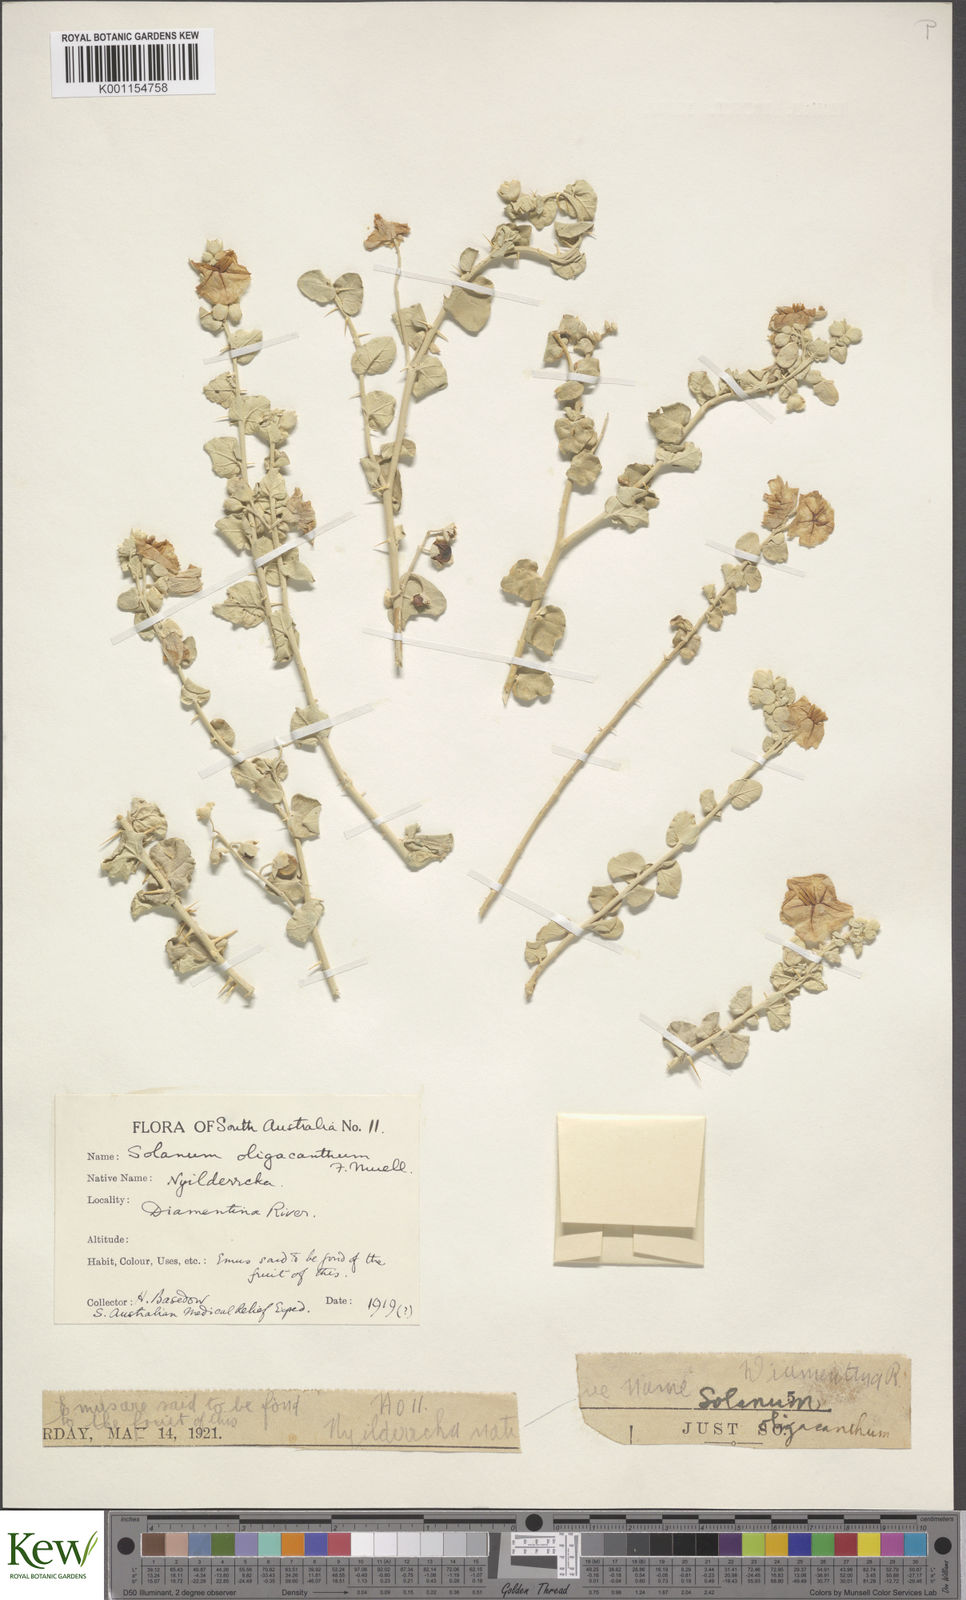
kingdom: Plantae
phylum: Tracheophyta
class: Magnoliopsida
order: Solanales
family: Solanaceae
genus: Solanum
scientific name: Solanum oligacanthum
